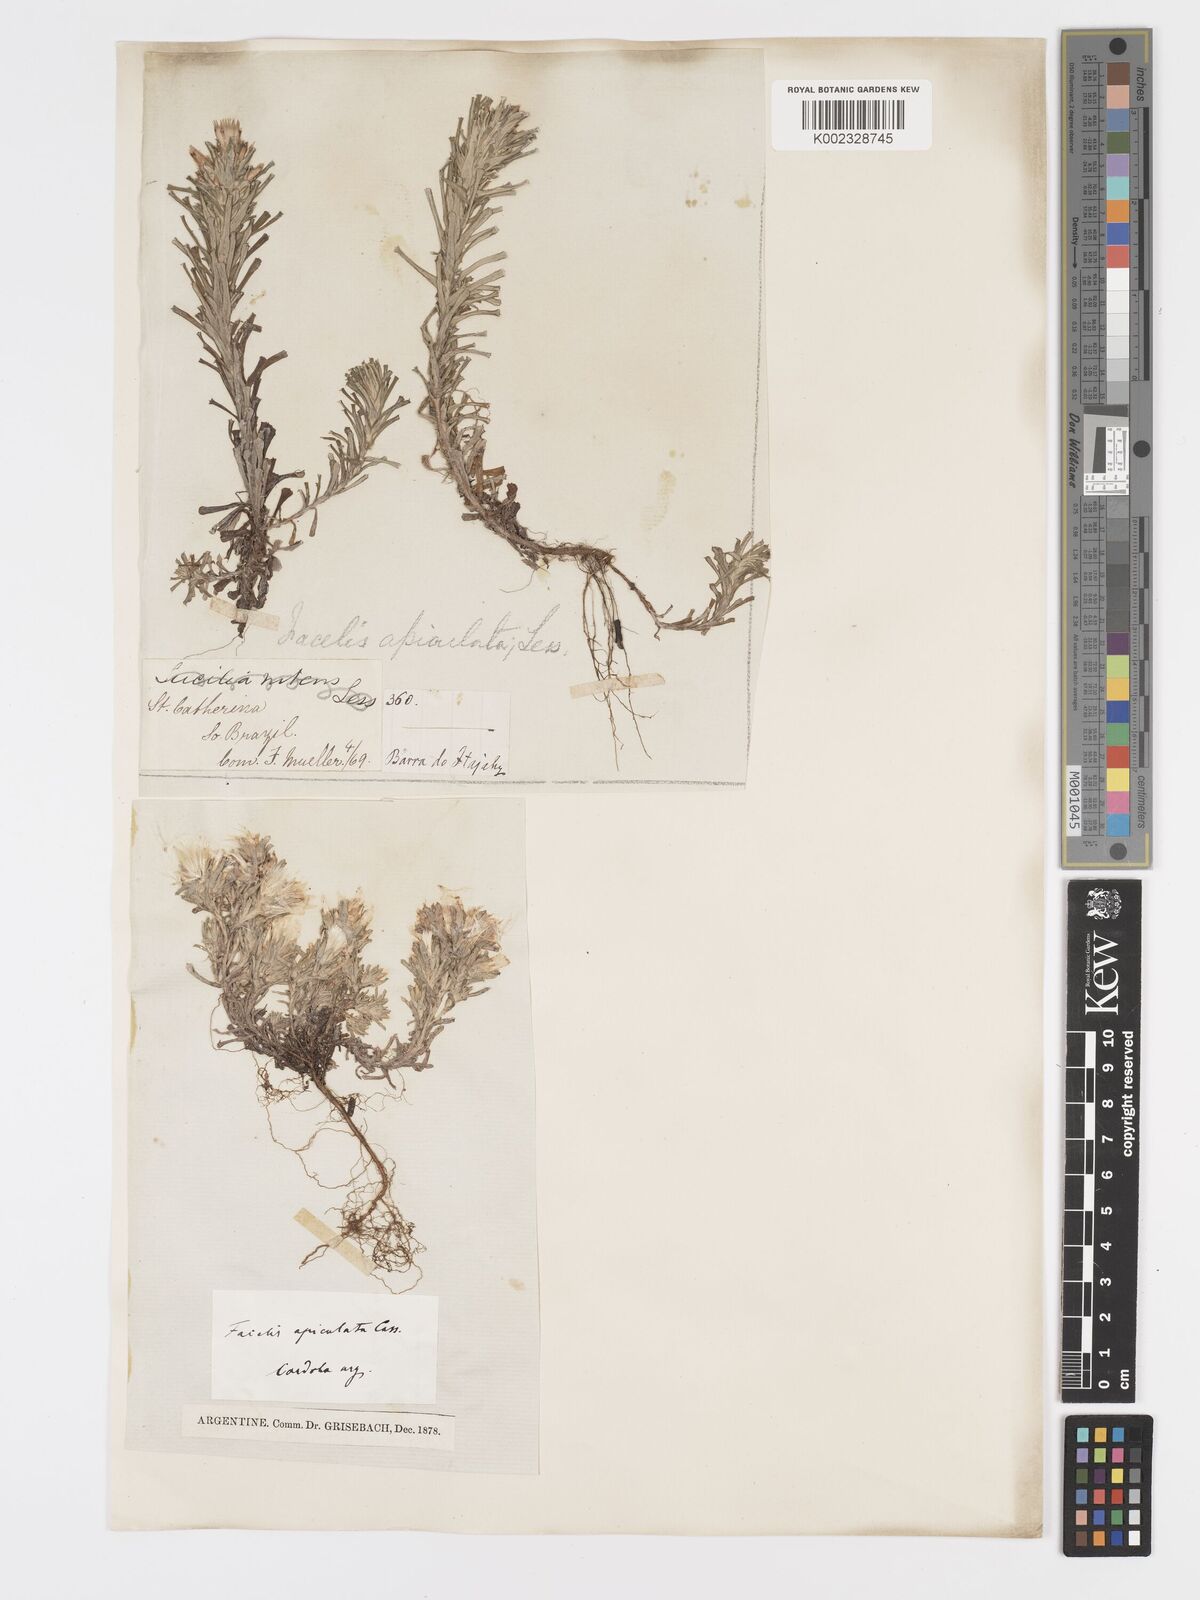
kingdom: Plantae
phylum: Tracheophyta
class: Magnoliopsida
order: Asterales
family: Asteraceae
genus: Facelis
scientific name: Facelis retusa
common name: Annual trampweed
